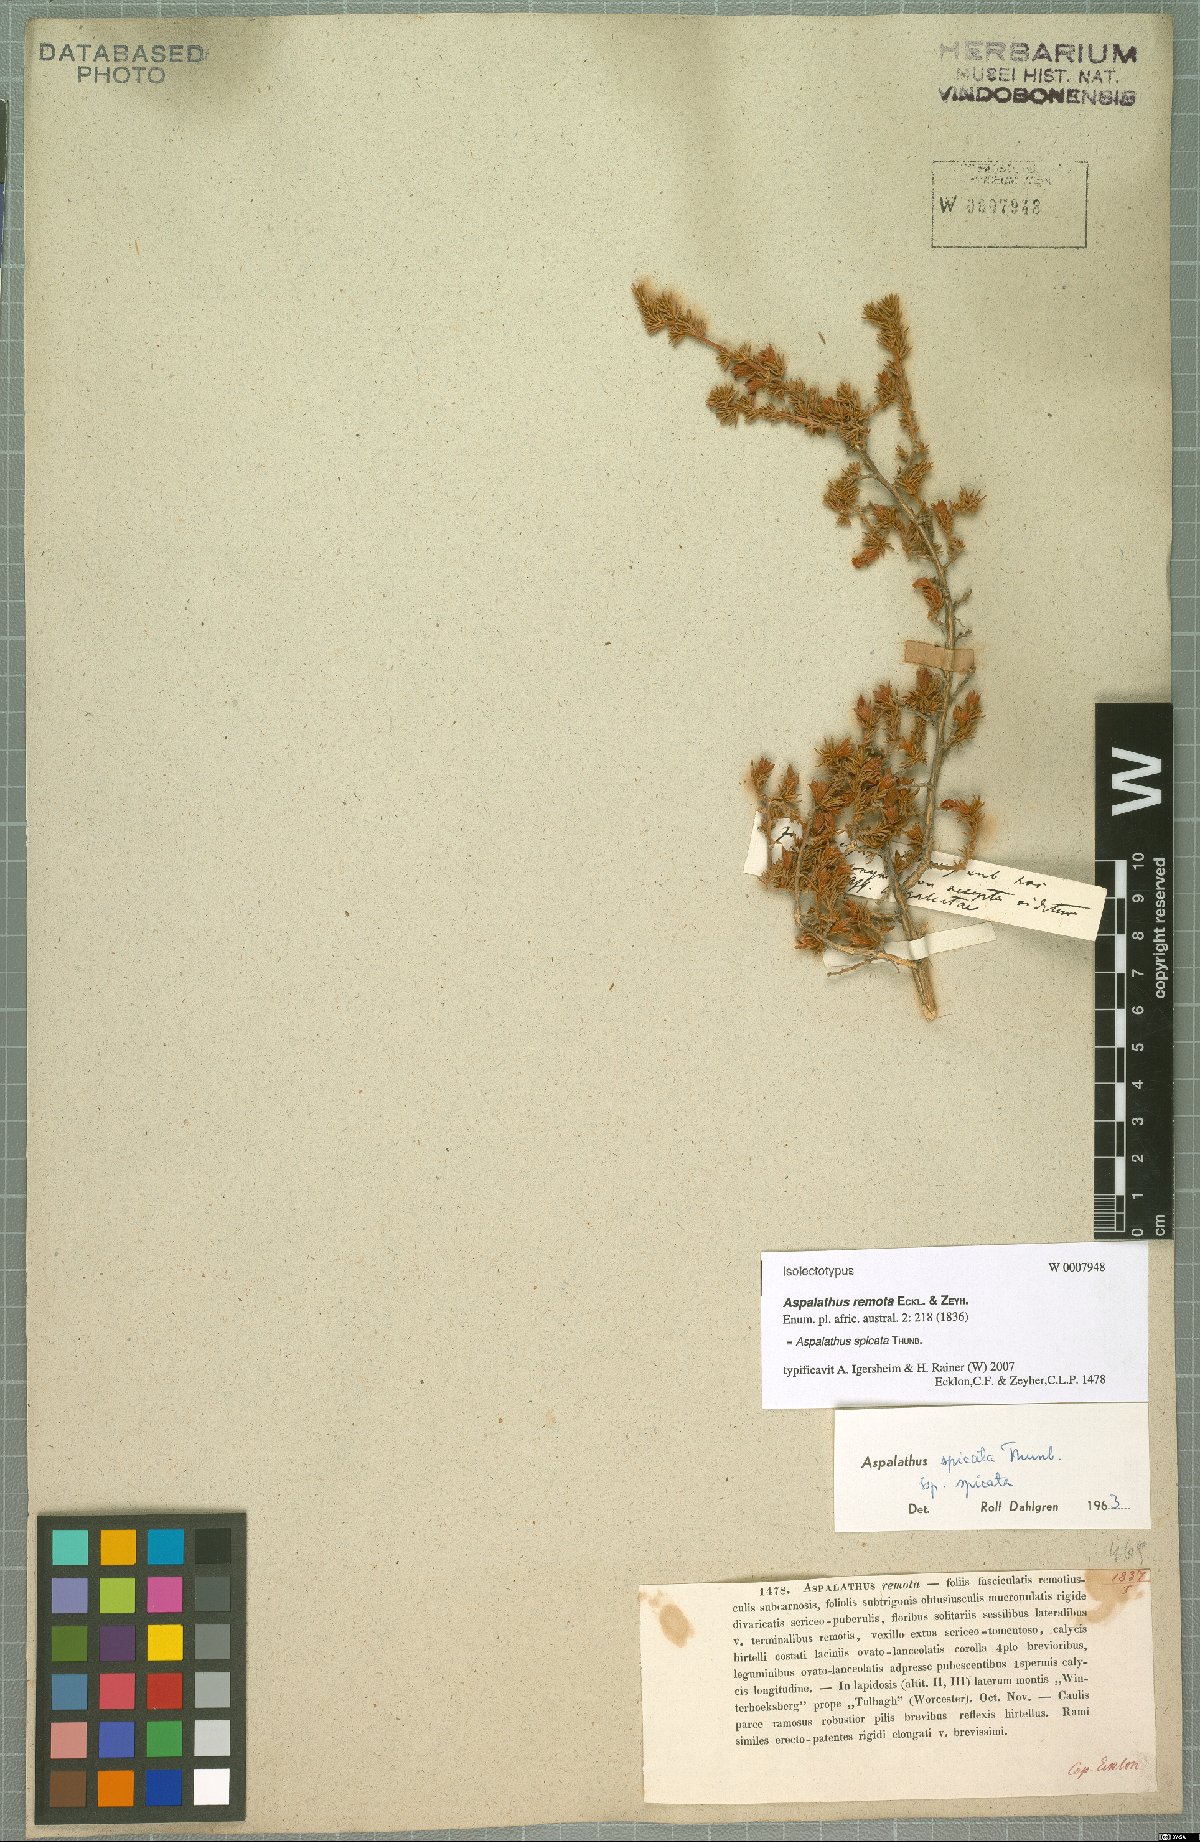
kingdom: Plantae
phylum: Tracheophyta
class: Magnoliopsida
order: Fabales
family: Fabaceae
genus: Aspalathus
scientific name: Aspalathus spicata
